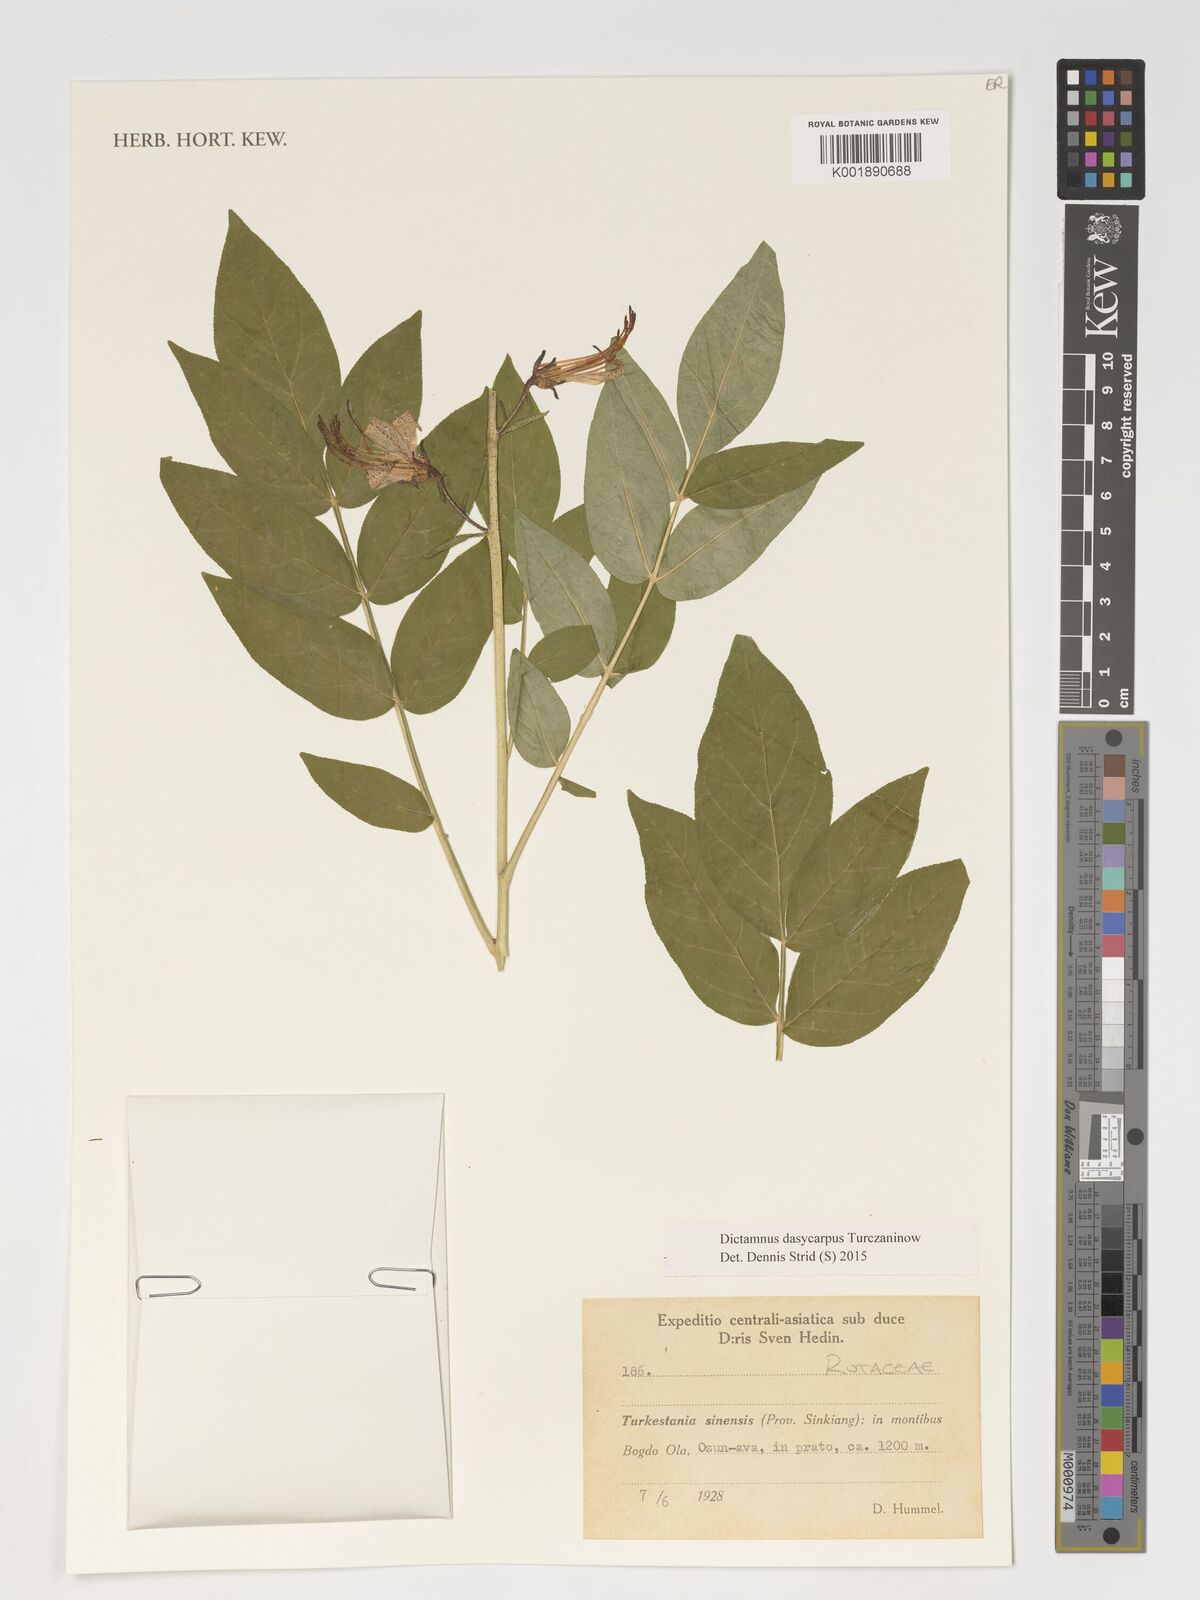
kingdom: Plantae
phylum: Tracheophyta
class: Magnoliopsida
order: Sapindales
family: Rutaceae
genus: Dictamnus
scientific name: Dictamnus dasycarpus
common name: Dense-fruit dittany
